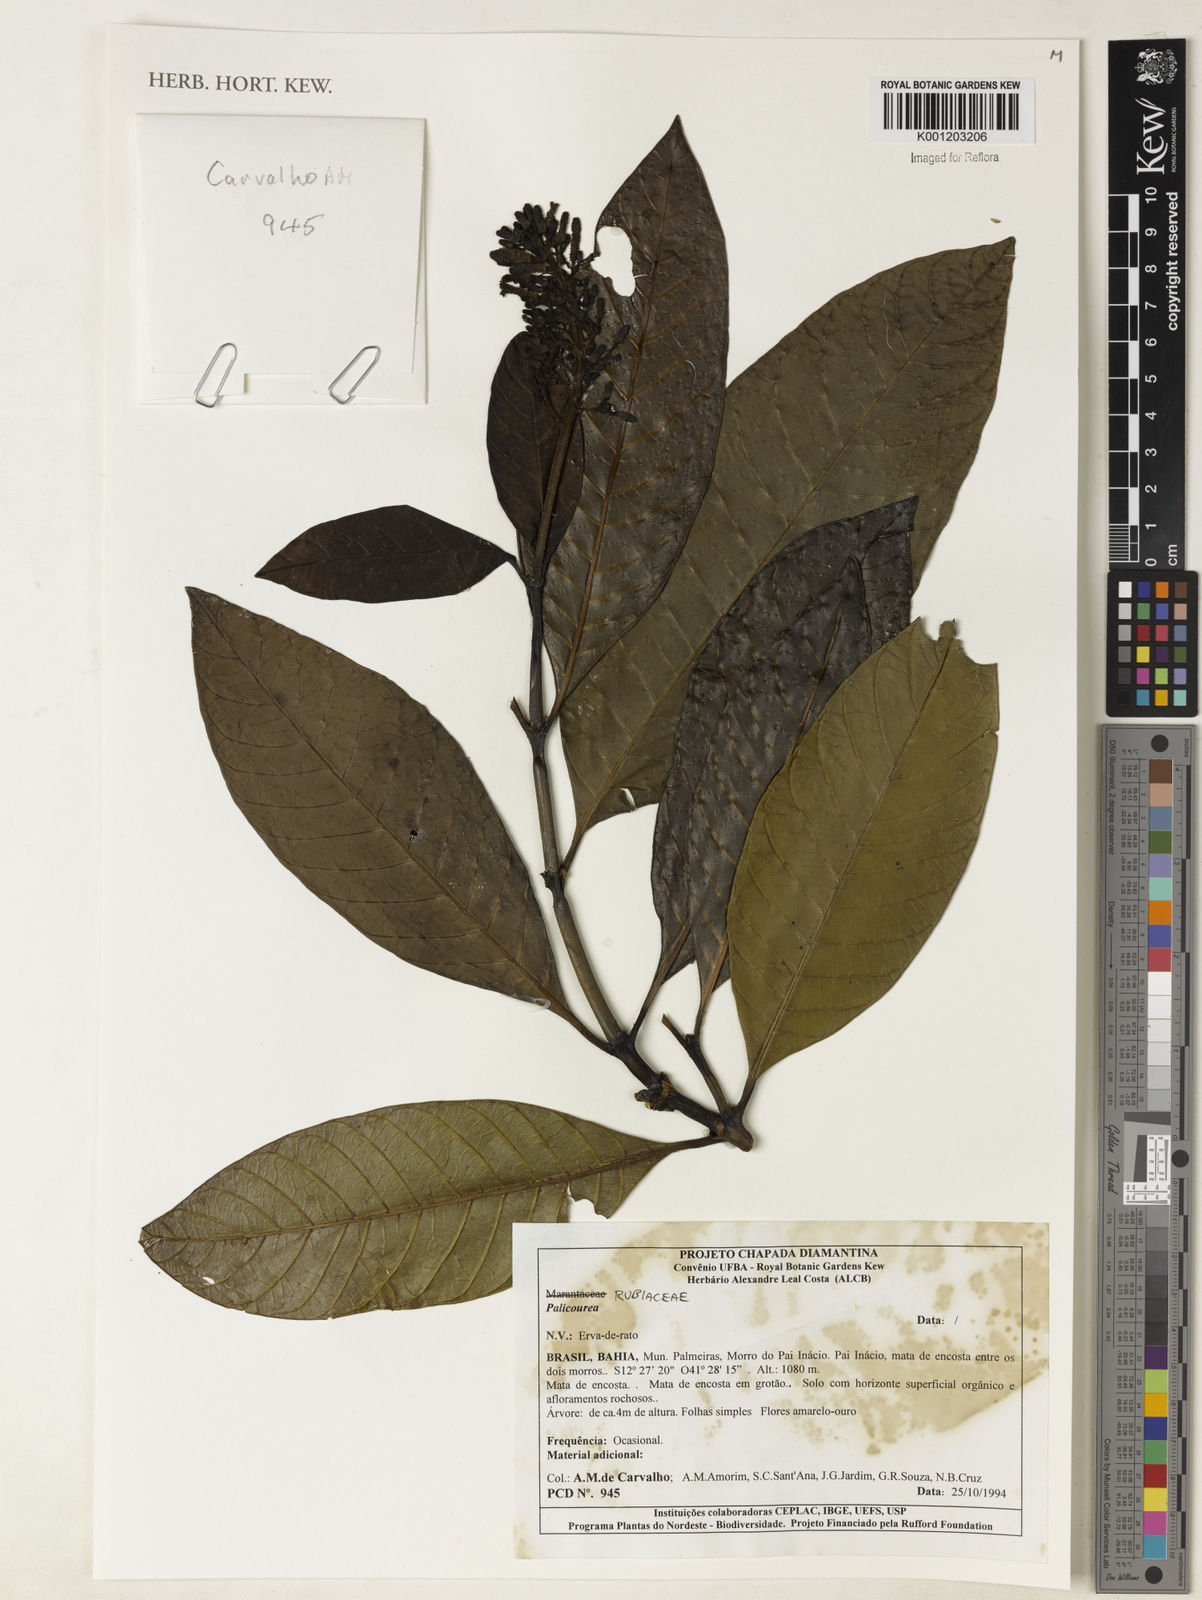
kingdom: Plantae
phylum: Tracheophyta
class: Magnoliopsida
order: Gentianales
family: Rubiaceae
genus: Palicourea
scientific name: Palicourea
